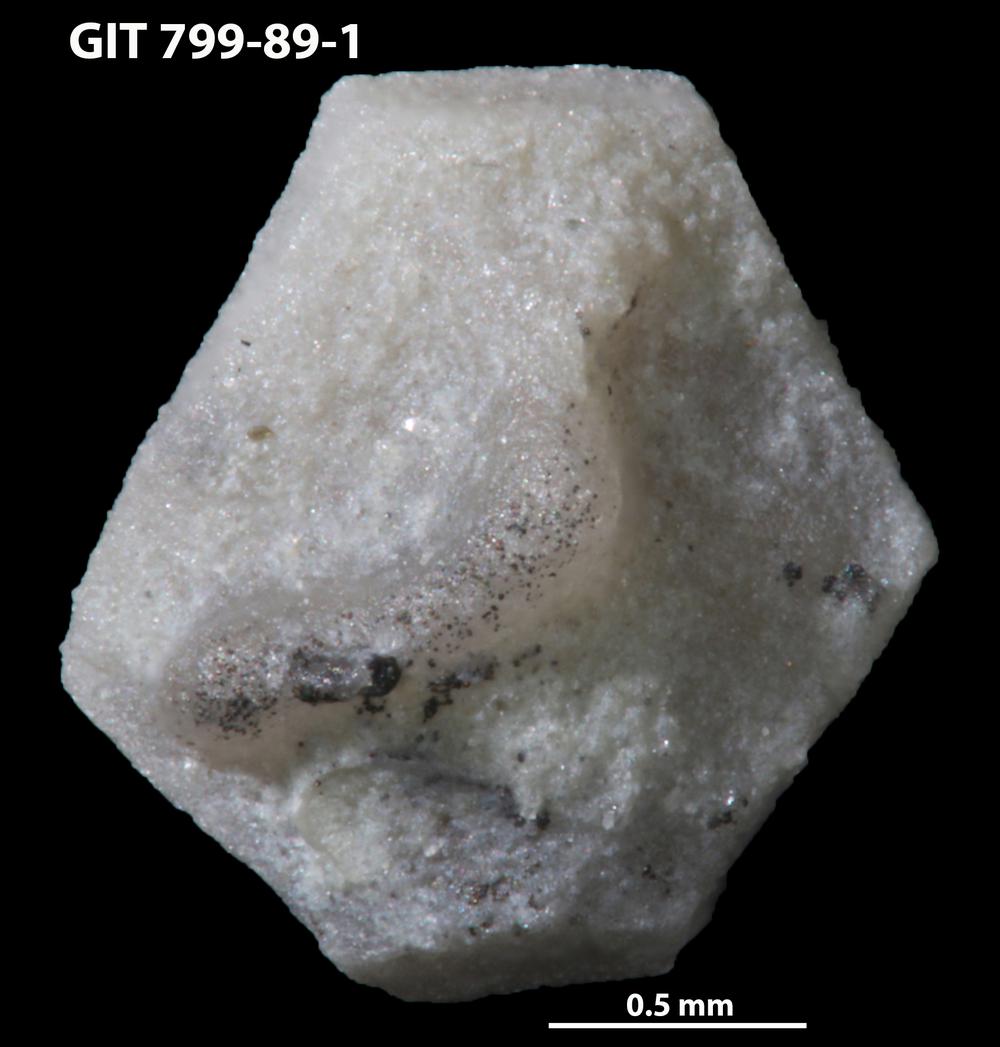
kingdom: Animalia
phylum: Echinodermata
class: Echinoidea
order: Bothriocidaroida
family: Bothriocidaridae
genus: Neobothriocidaris
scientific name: Neobothriocidaris
